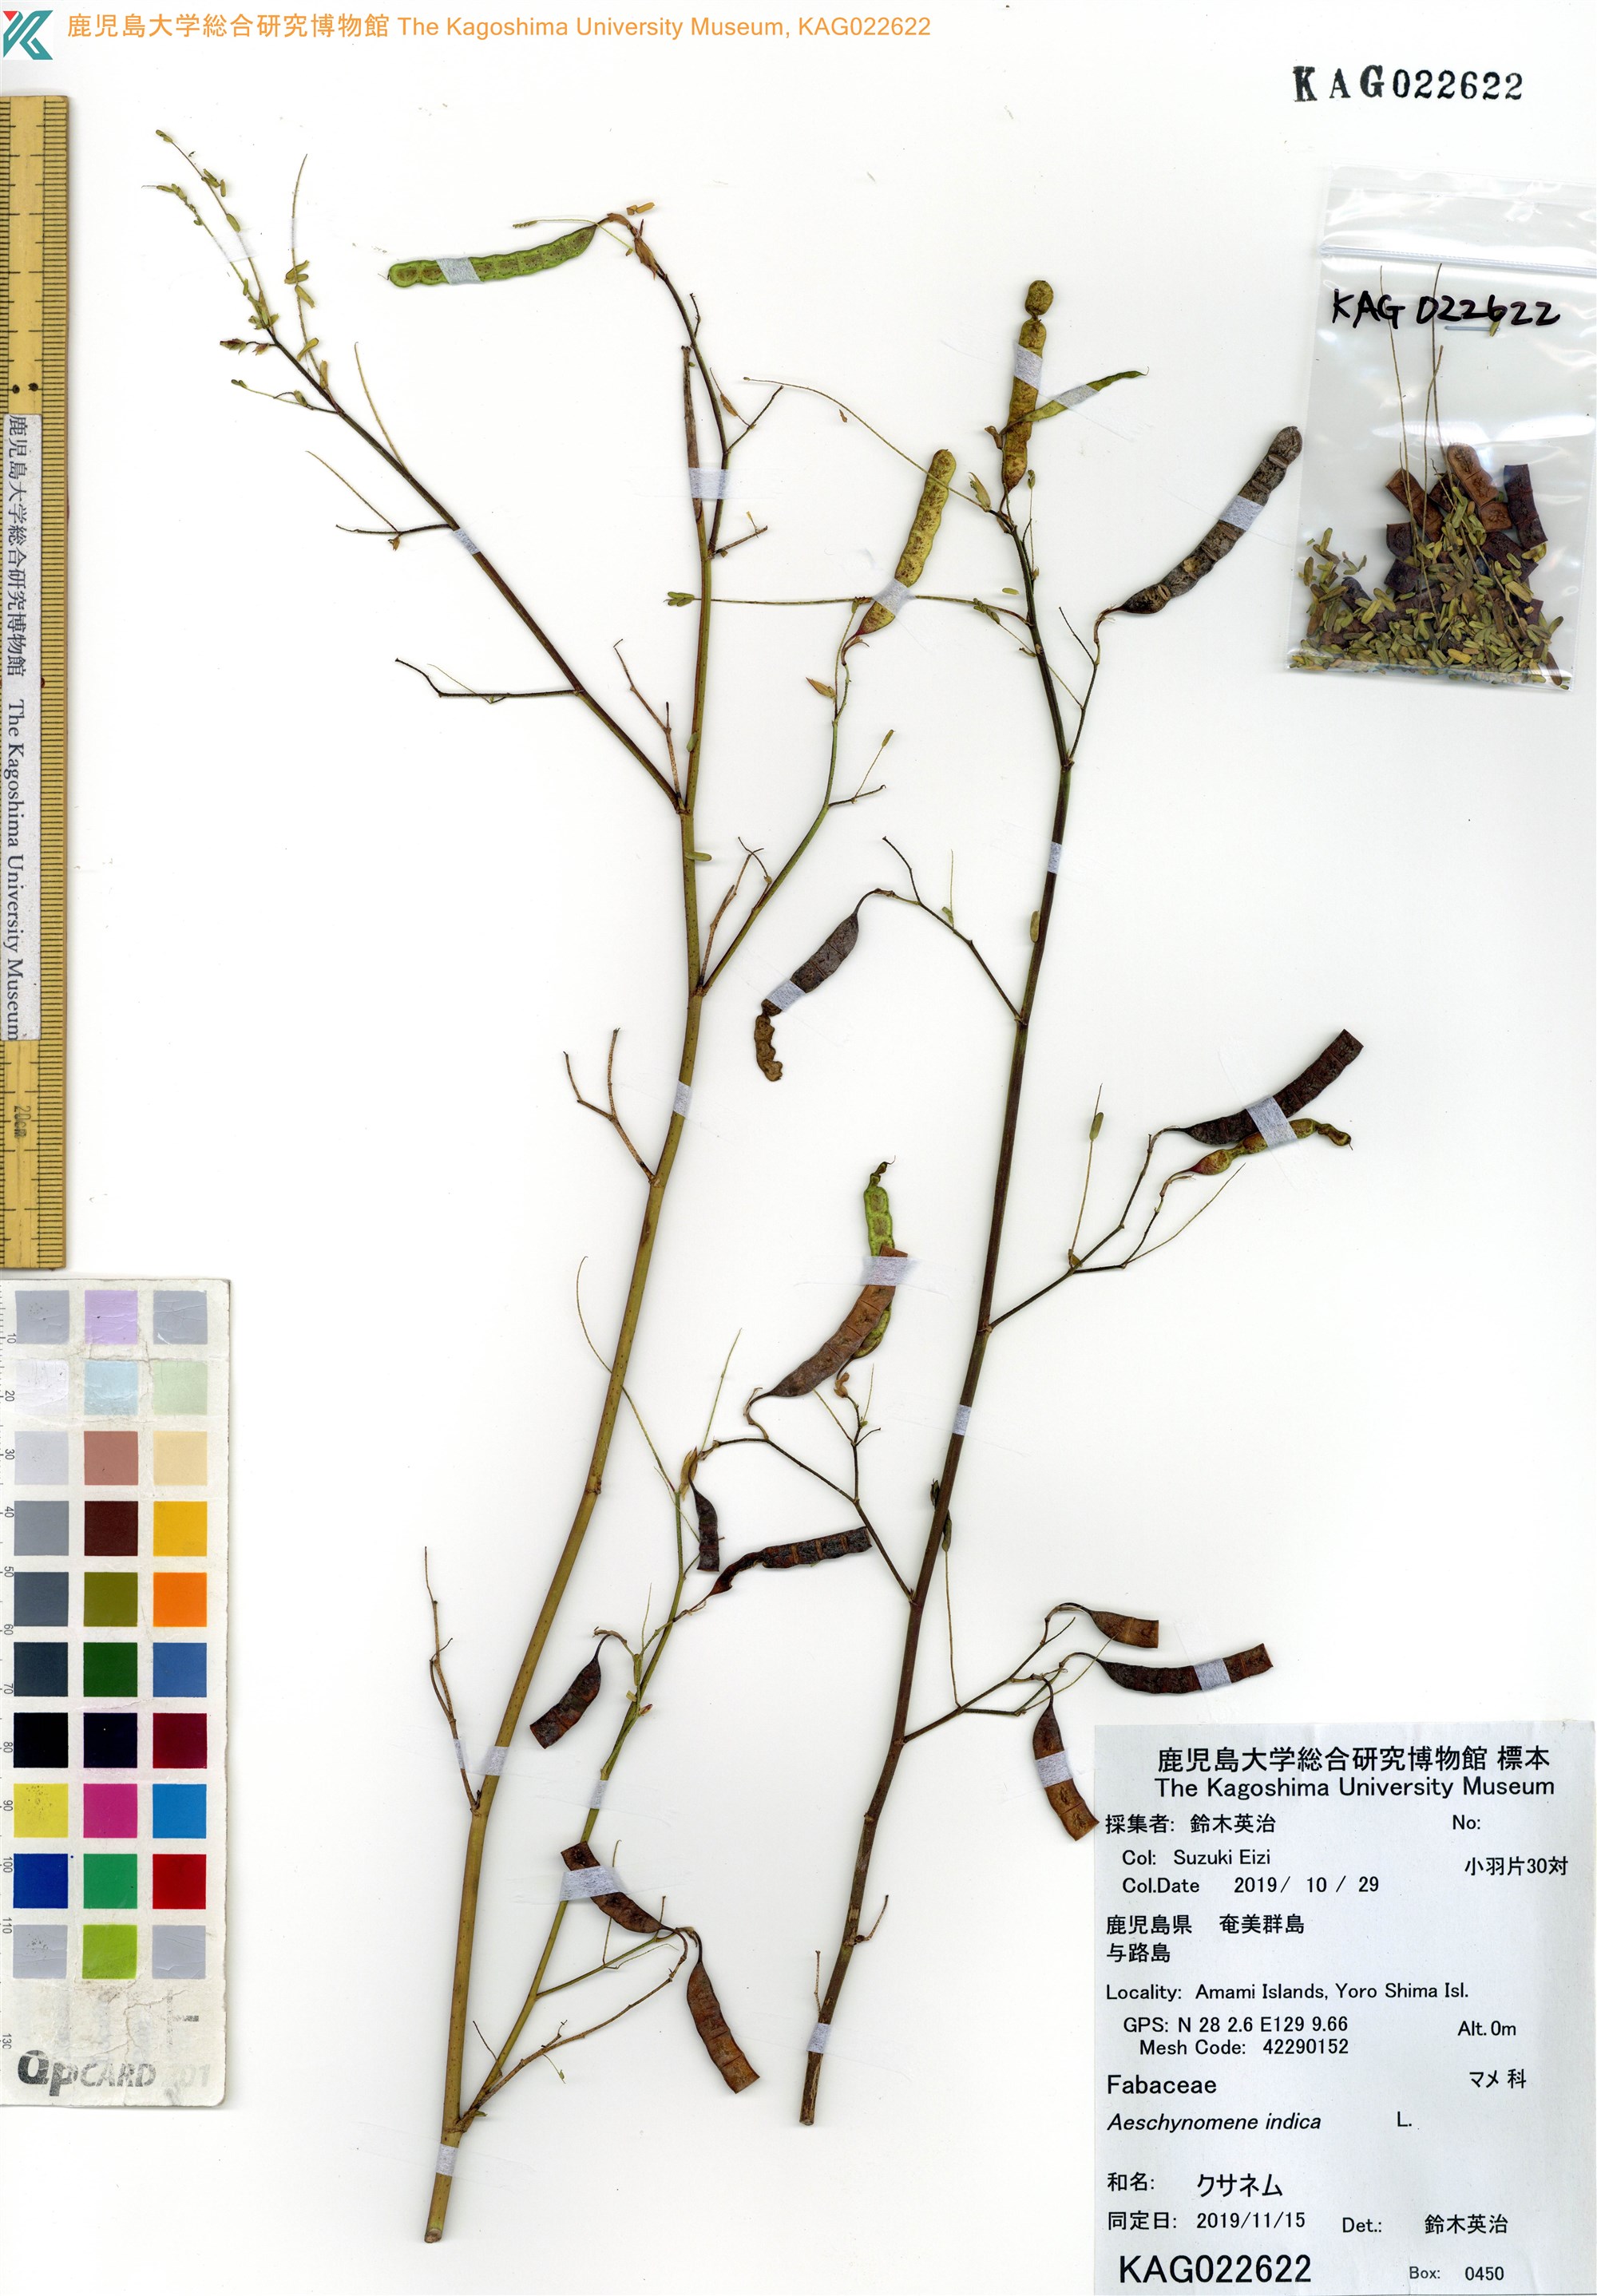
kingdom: Plantae
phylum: Tracheophyta
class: Magnoliopsida
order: Fabales
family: Fabaceae
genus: Aeschynomene
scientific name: Aeschynomene indica
